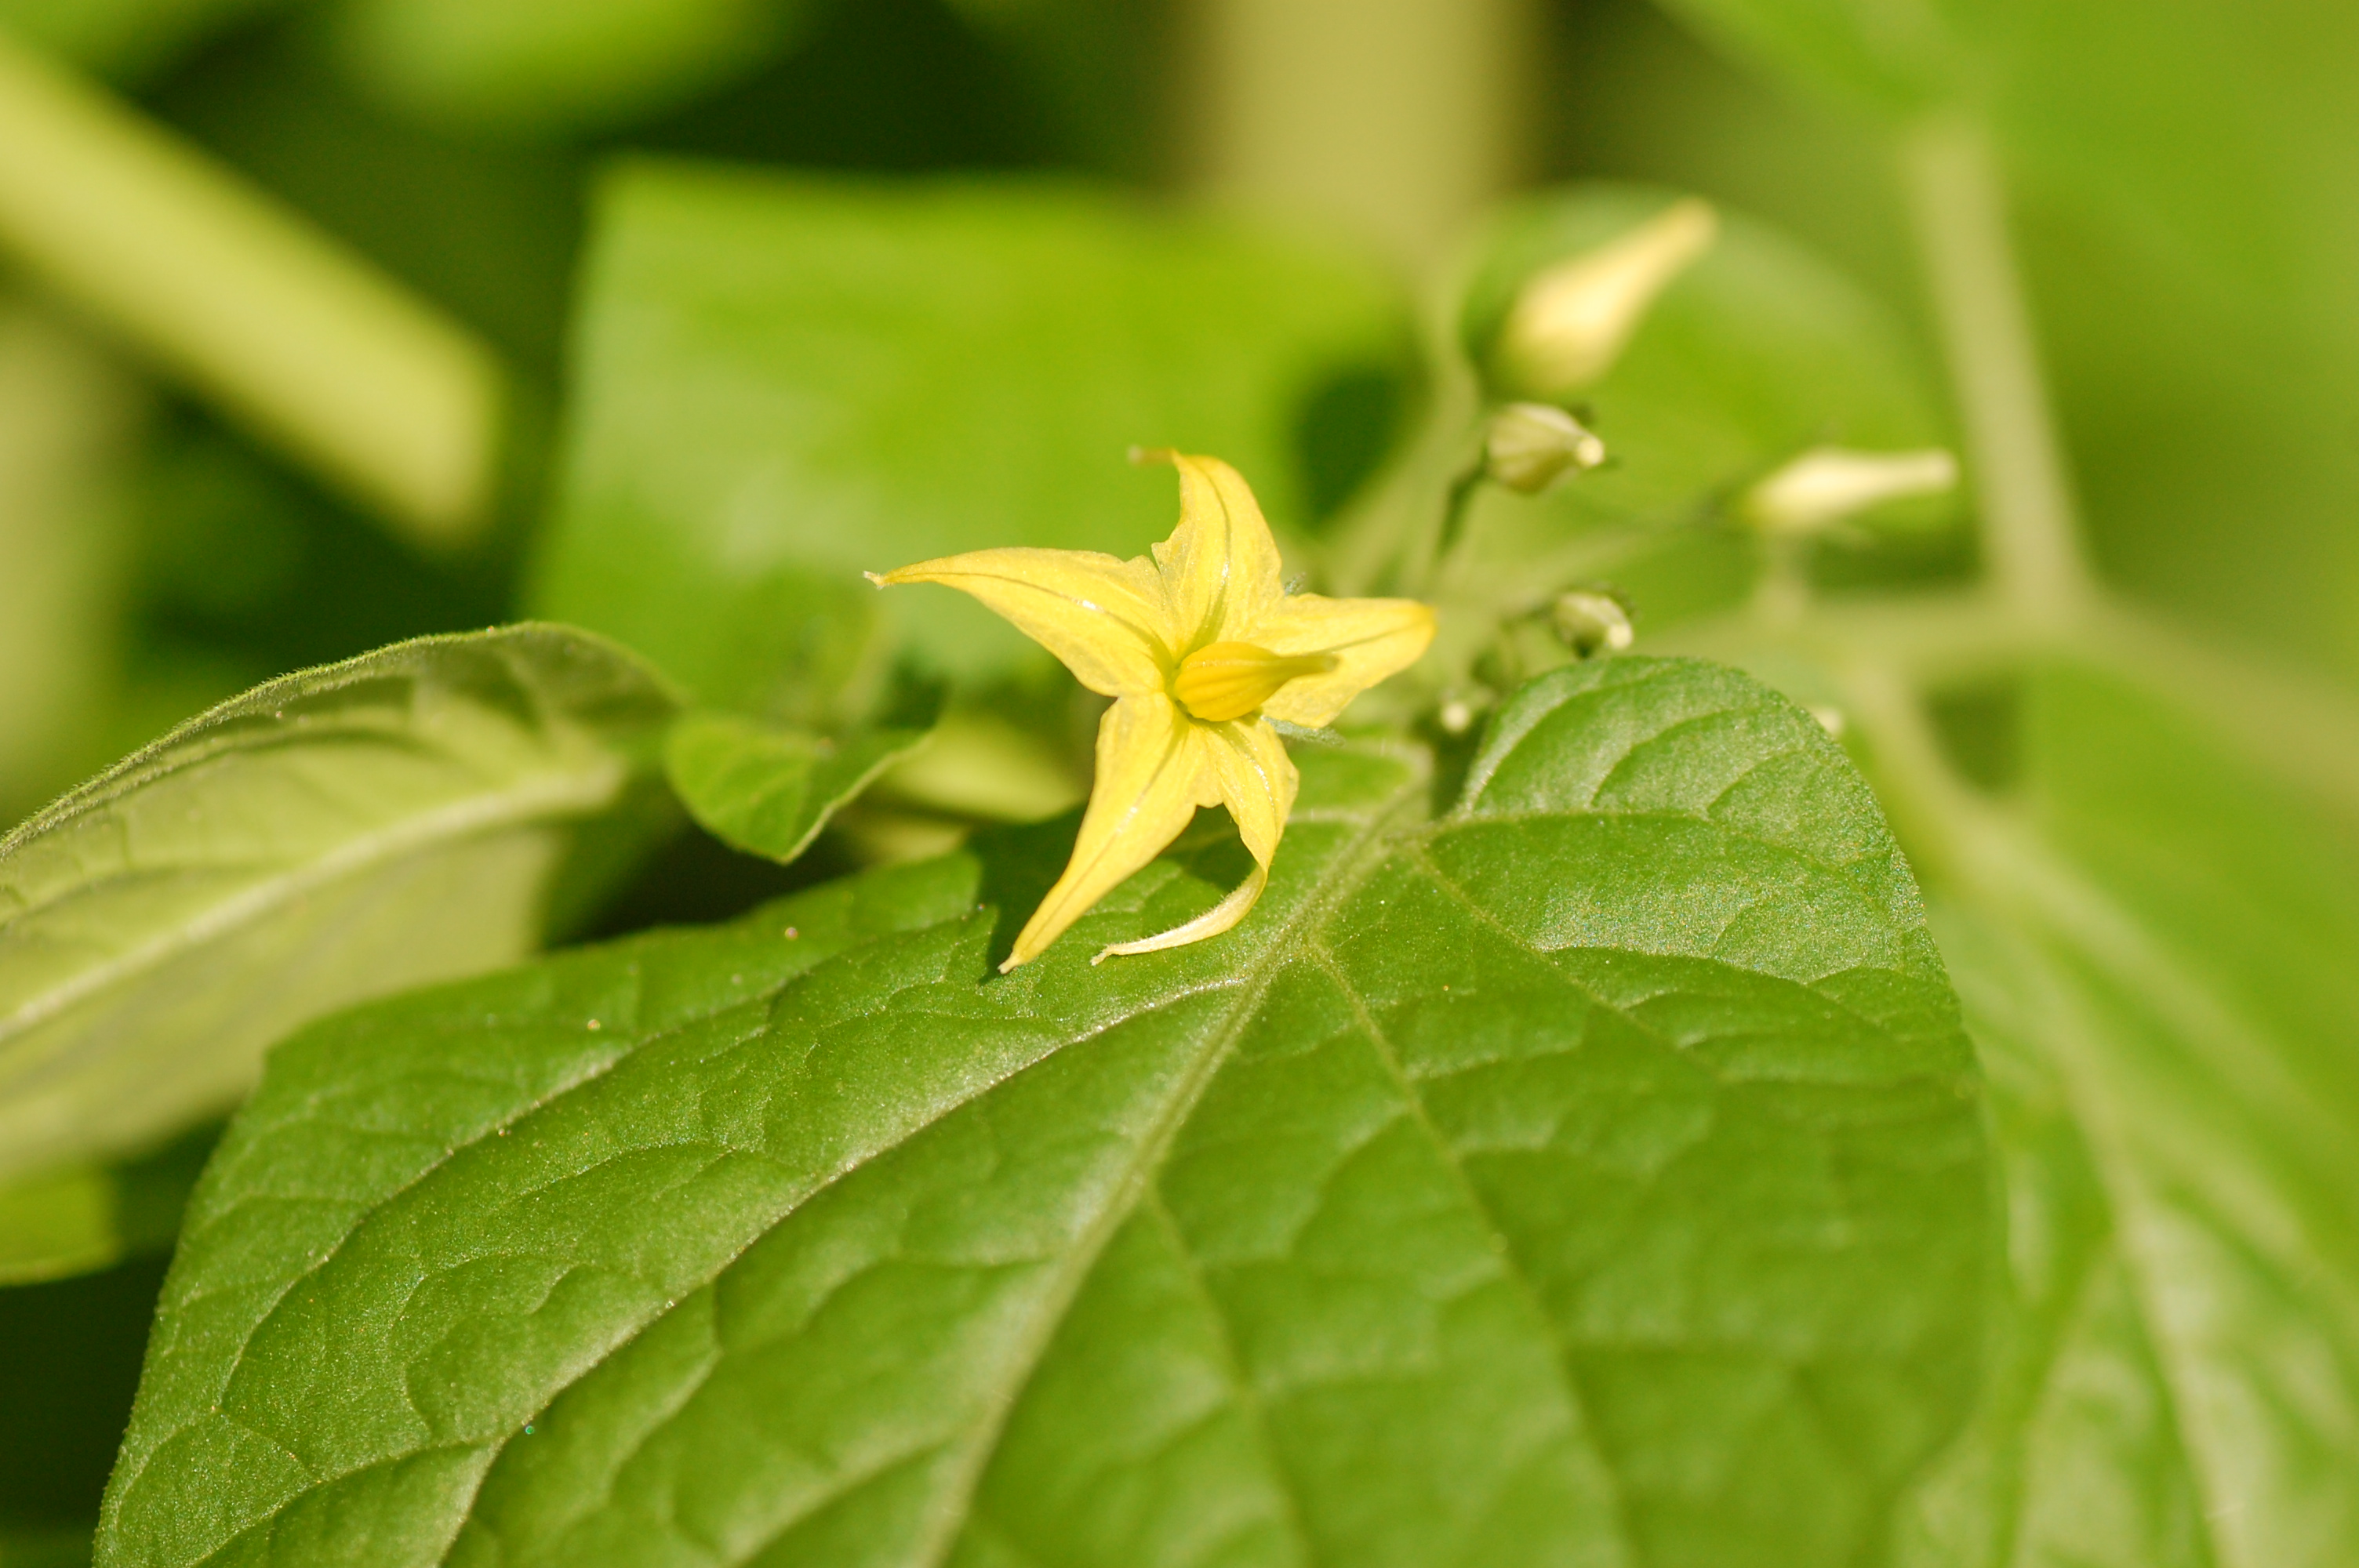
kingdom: Plantae
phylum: Tracheophyta
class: Magnoliopsida
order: Solanales
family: Solanaceae
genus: Solanum
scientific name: Solanum pimpinellifolium
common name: Currant-tomato
